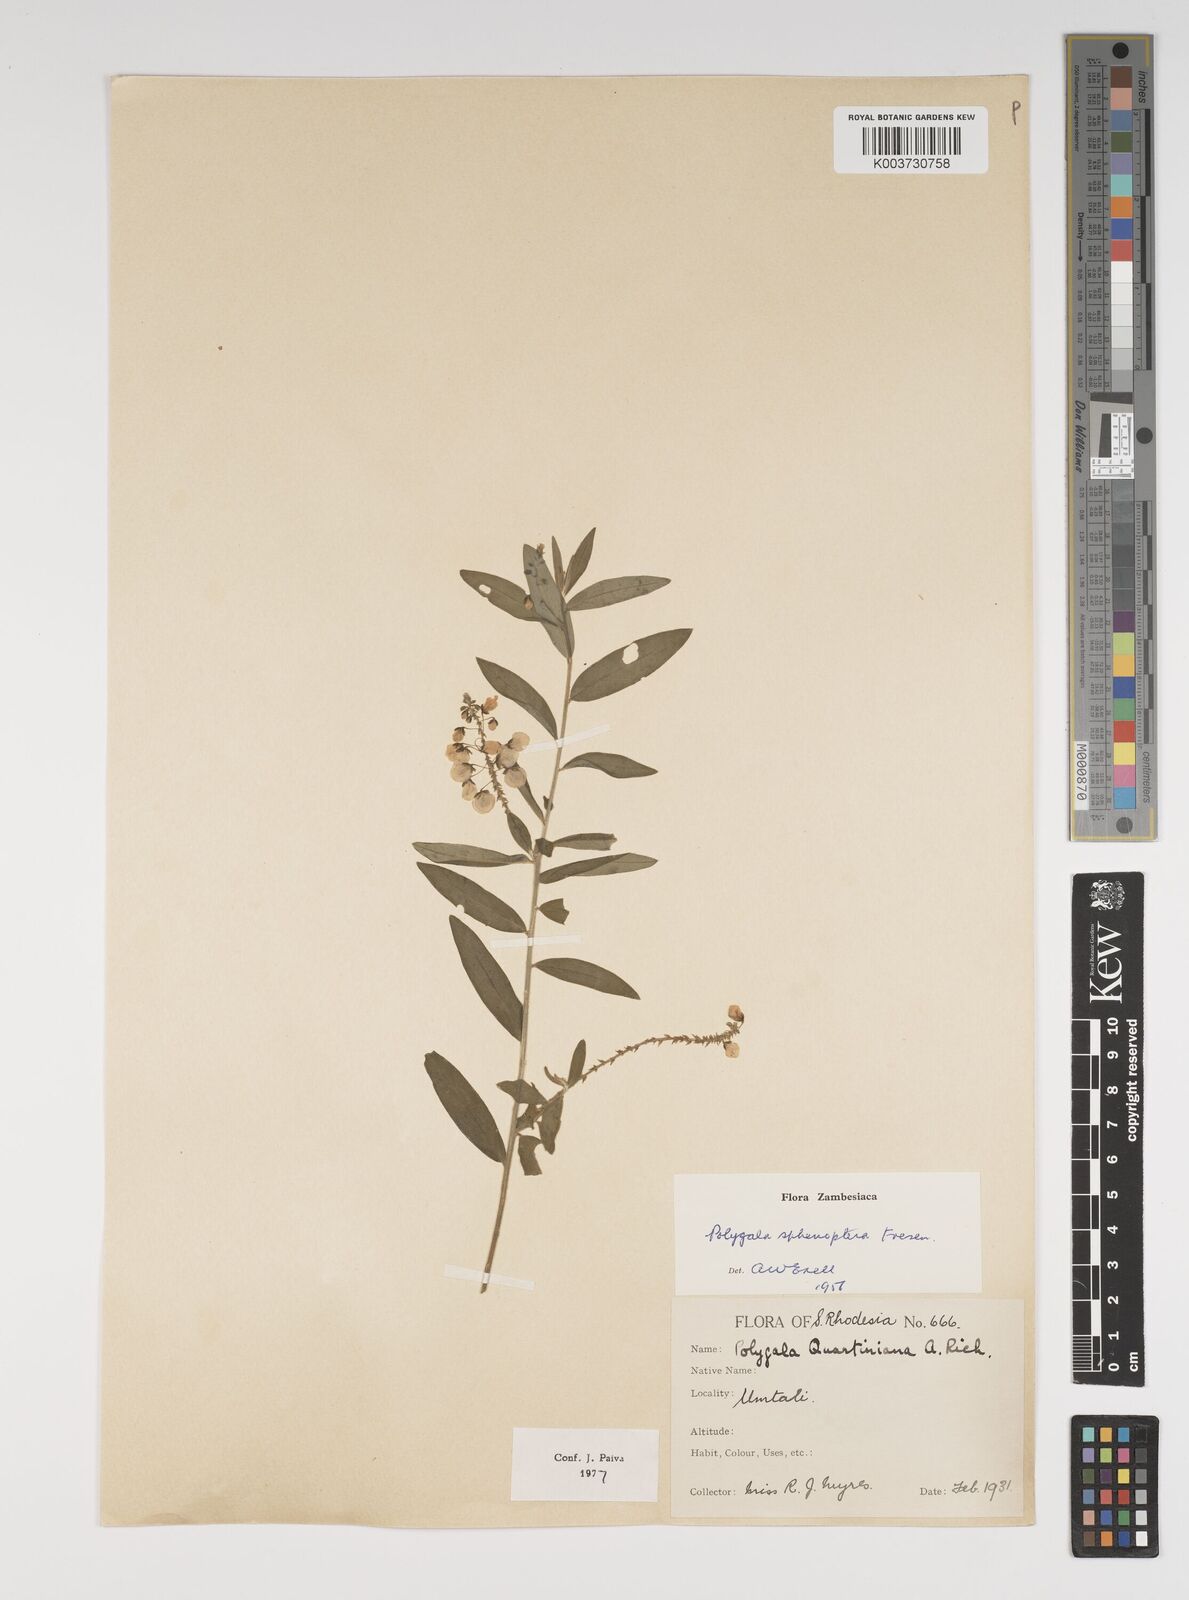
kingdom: Plantae
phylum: Tracheophyta
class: Magnoliopsida
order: Fabales
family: Polygalaceae
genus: Polygala
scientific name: Polygala sphenoptera
